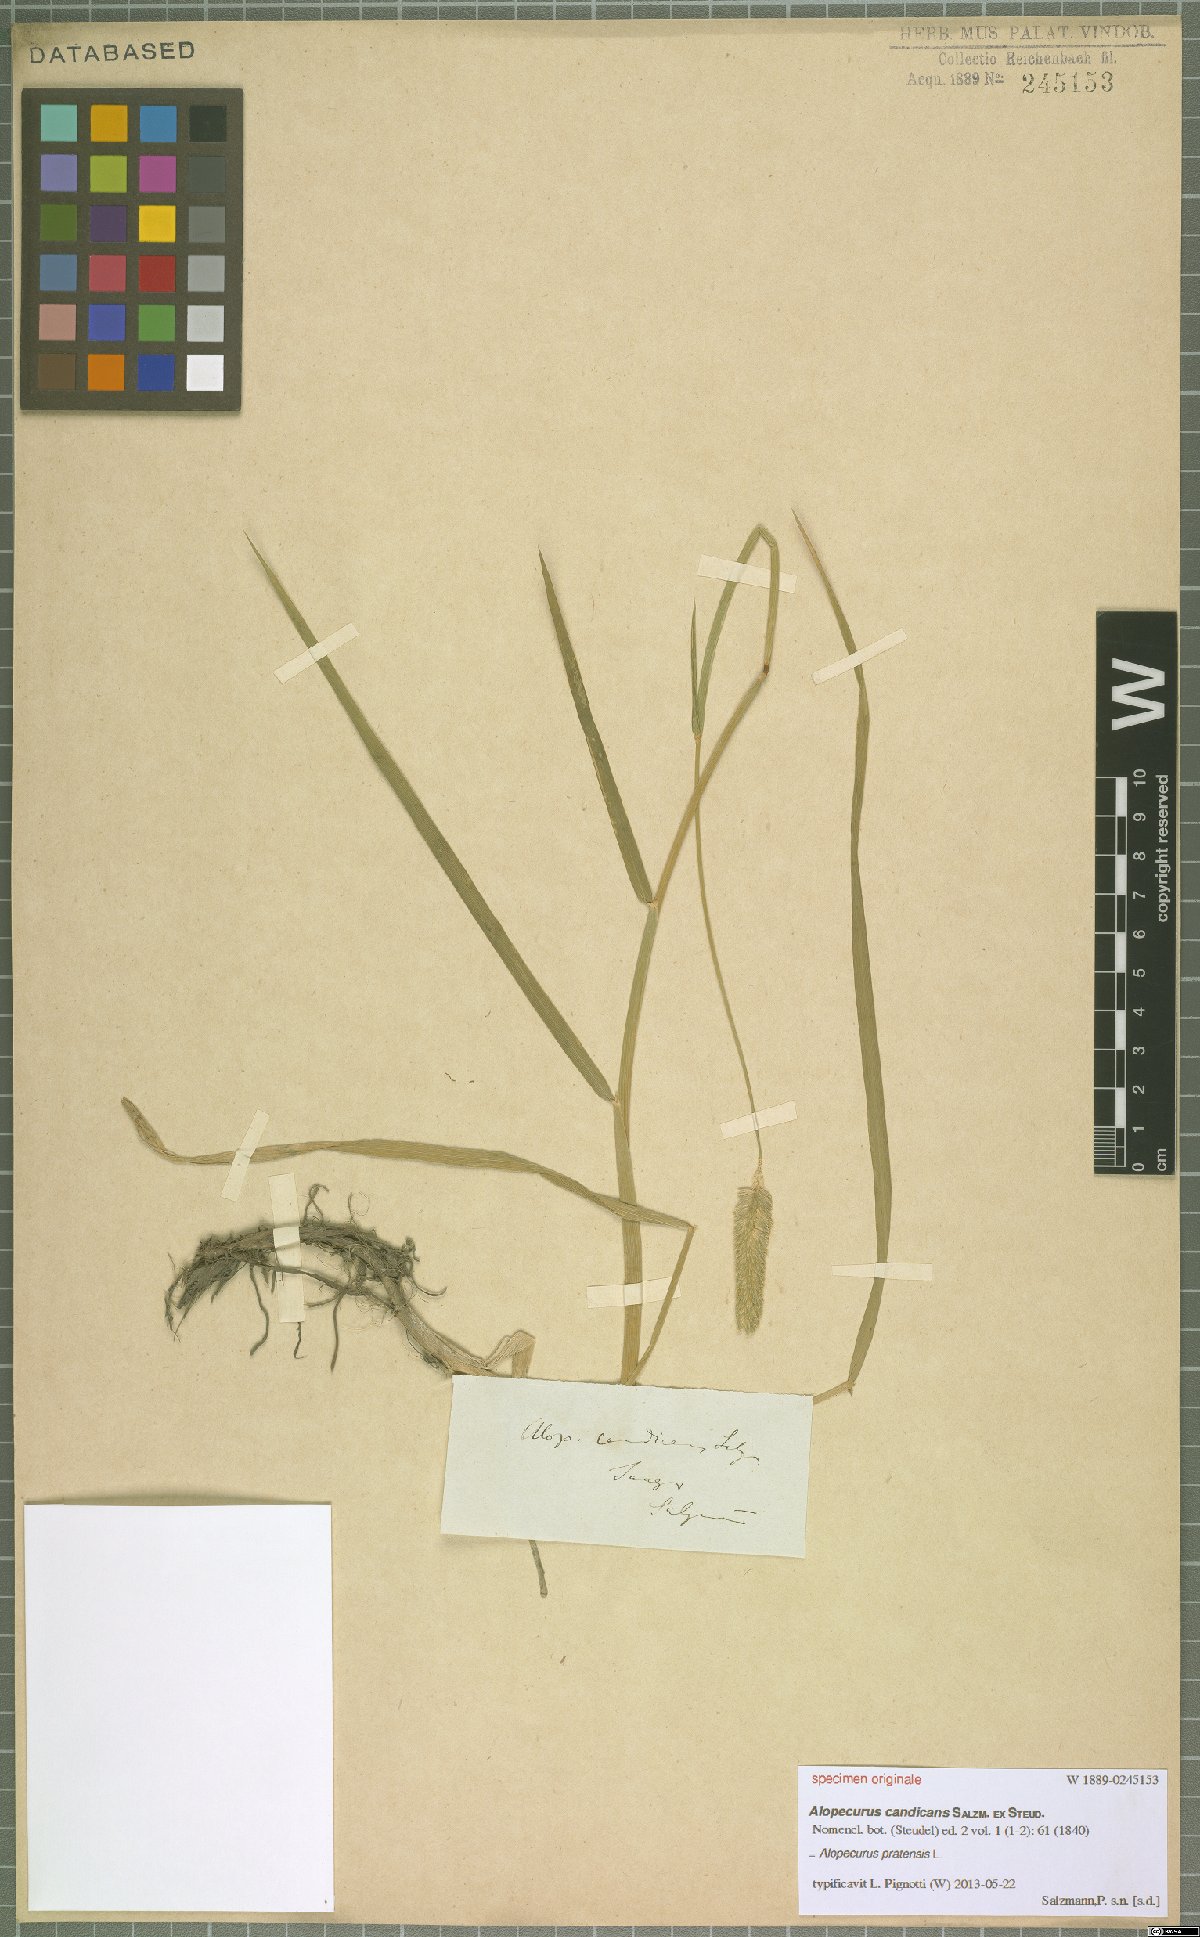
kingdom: Plantae
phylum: Tracheophyta
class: Liliopsida
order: Poales
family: Poaceae
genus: Alopecurus
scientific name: Alopecurus pratensis
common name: Meadow foxtail
